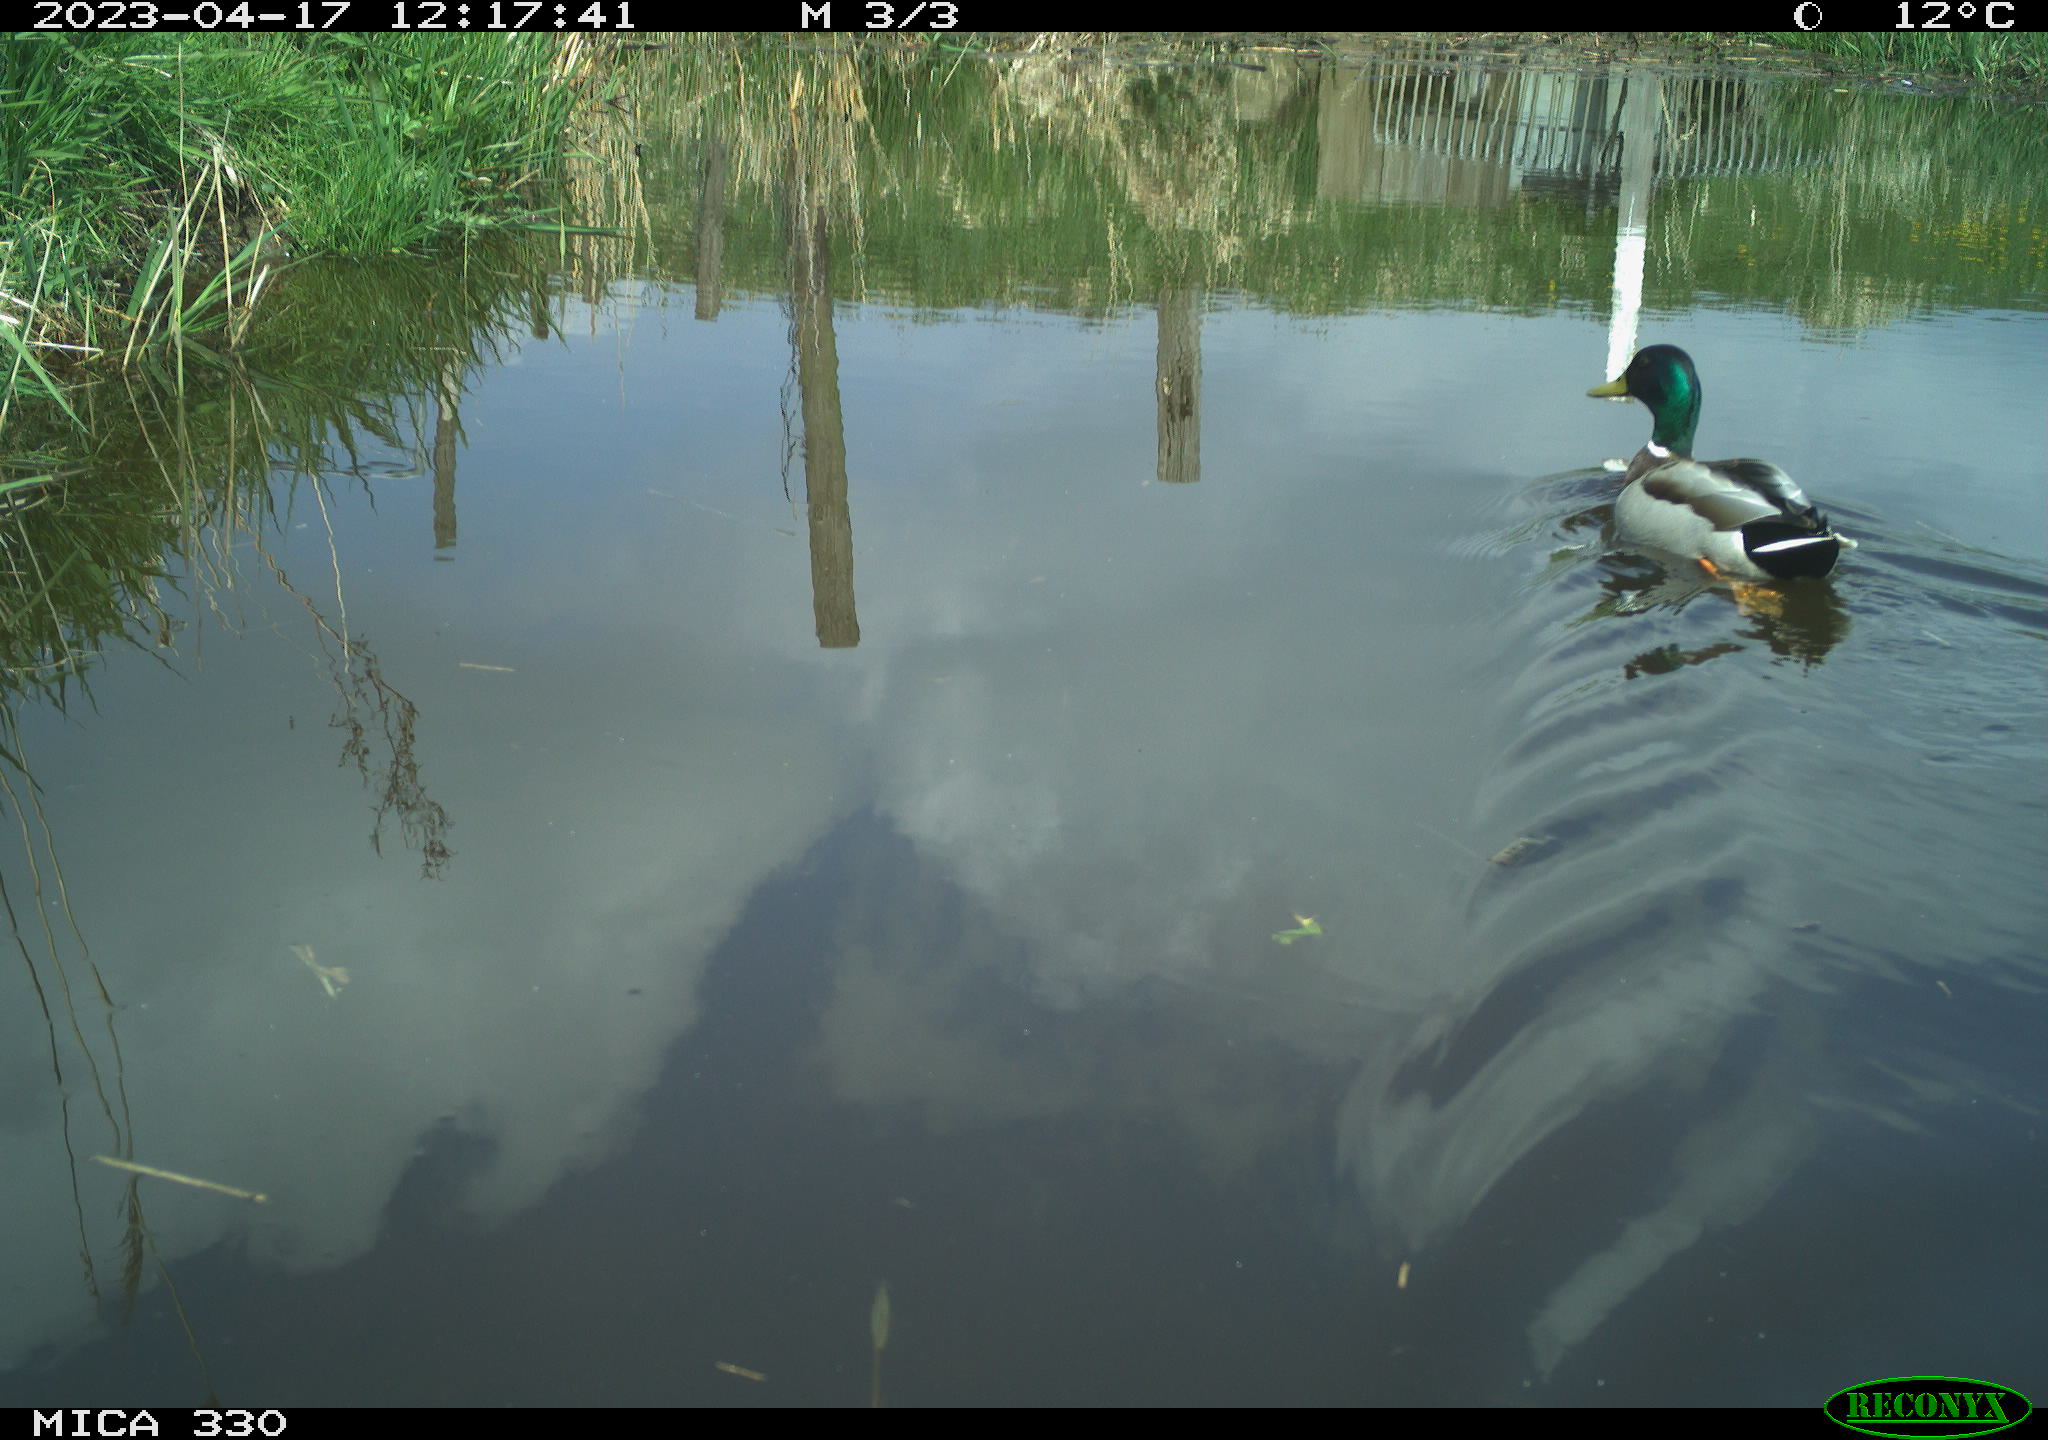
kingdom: Animalia
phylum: Chordata
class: Aves
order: Anseriformes
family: Anatidae
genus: Anas
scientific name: Anas
